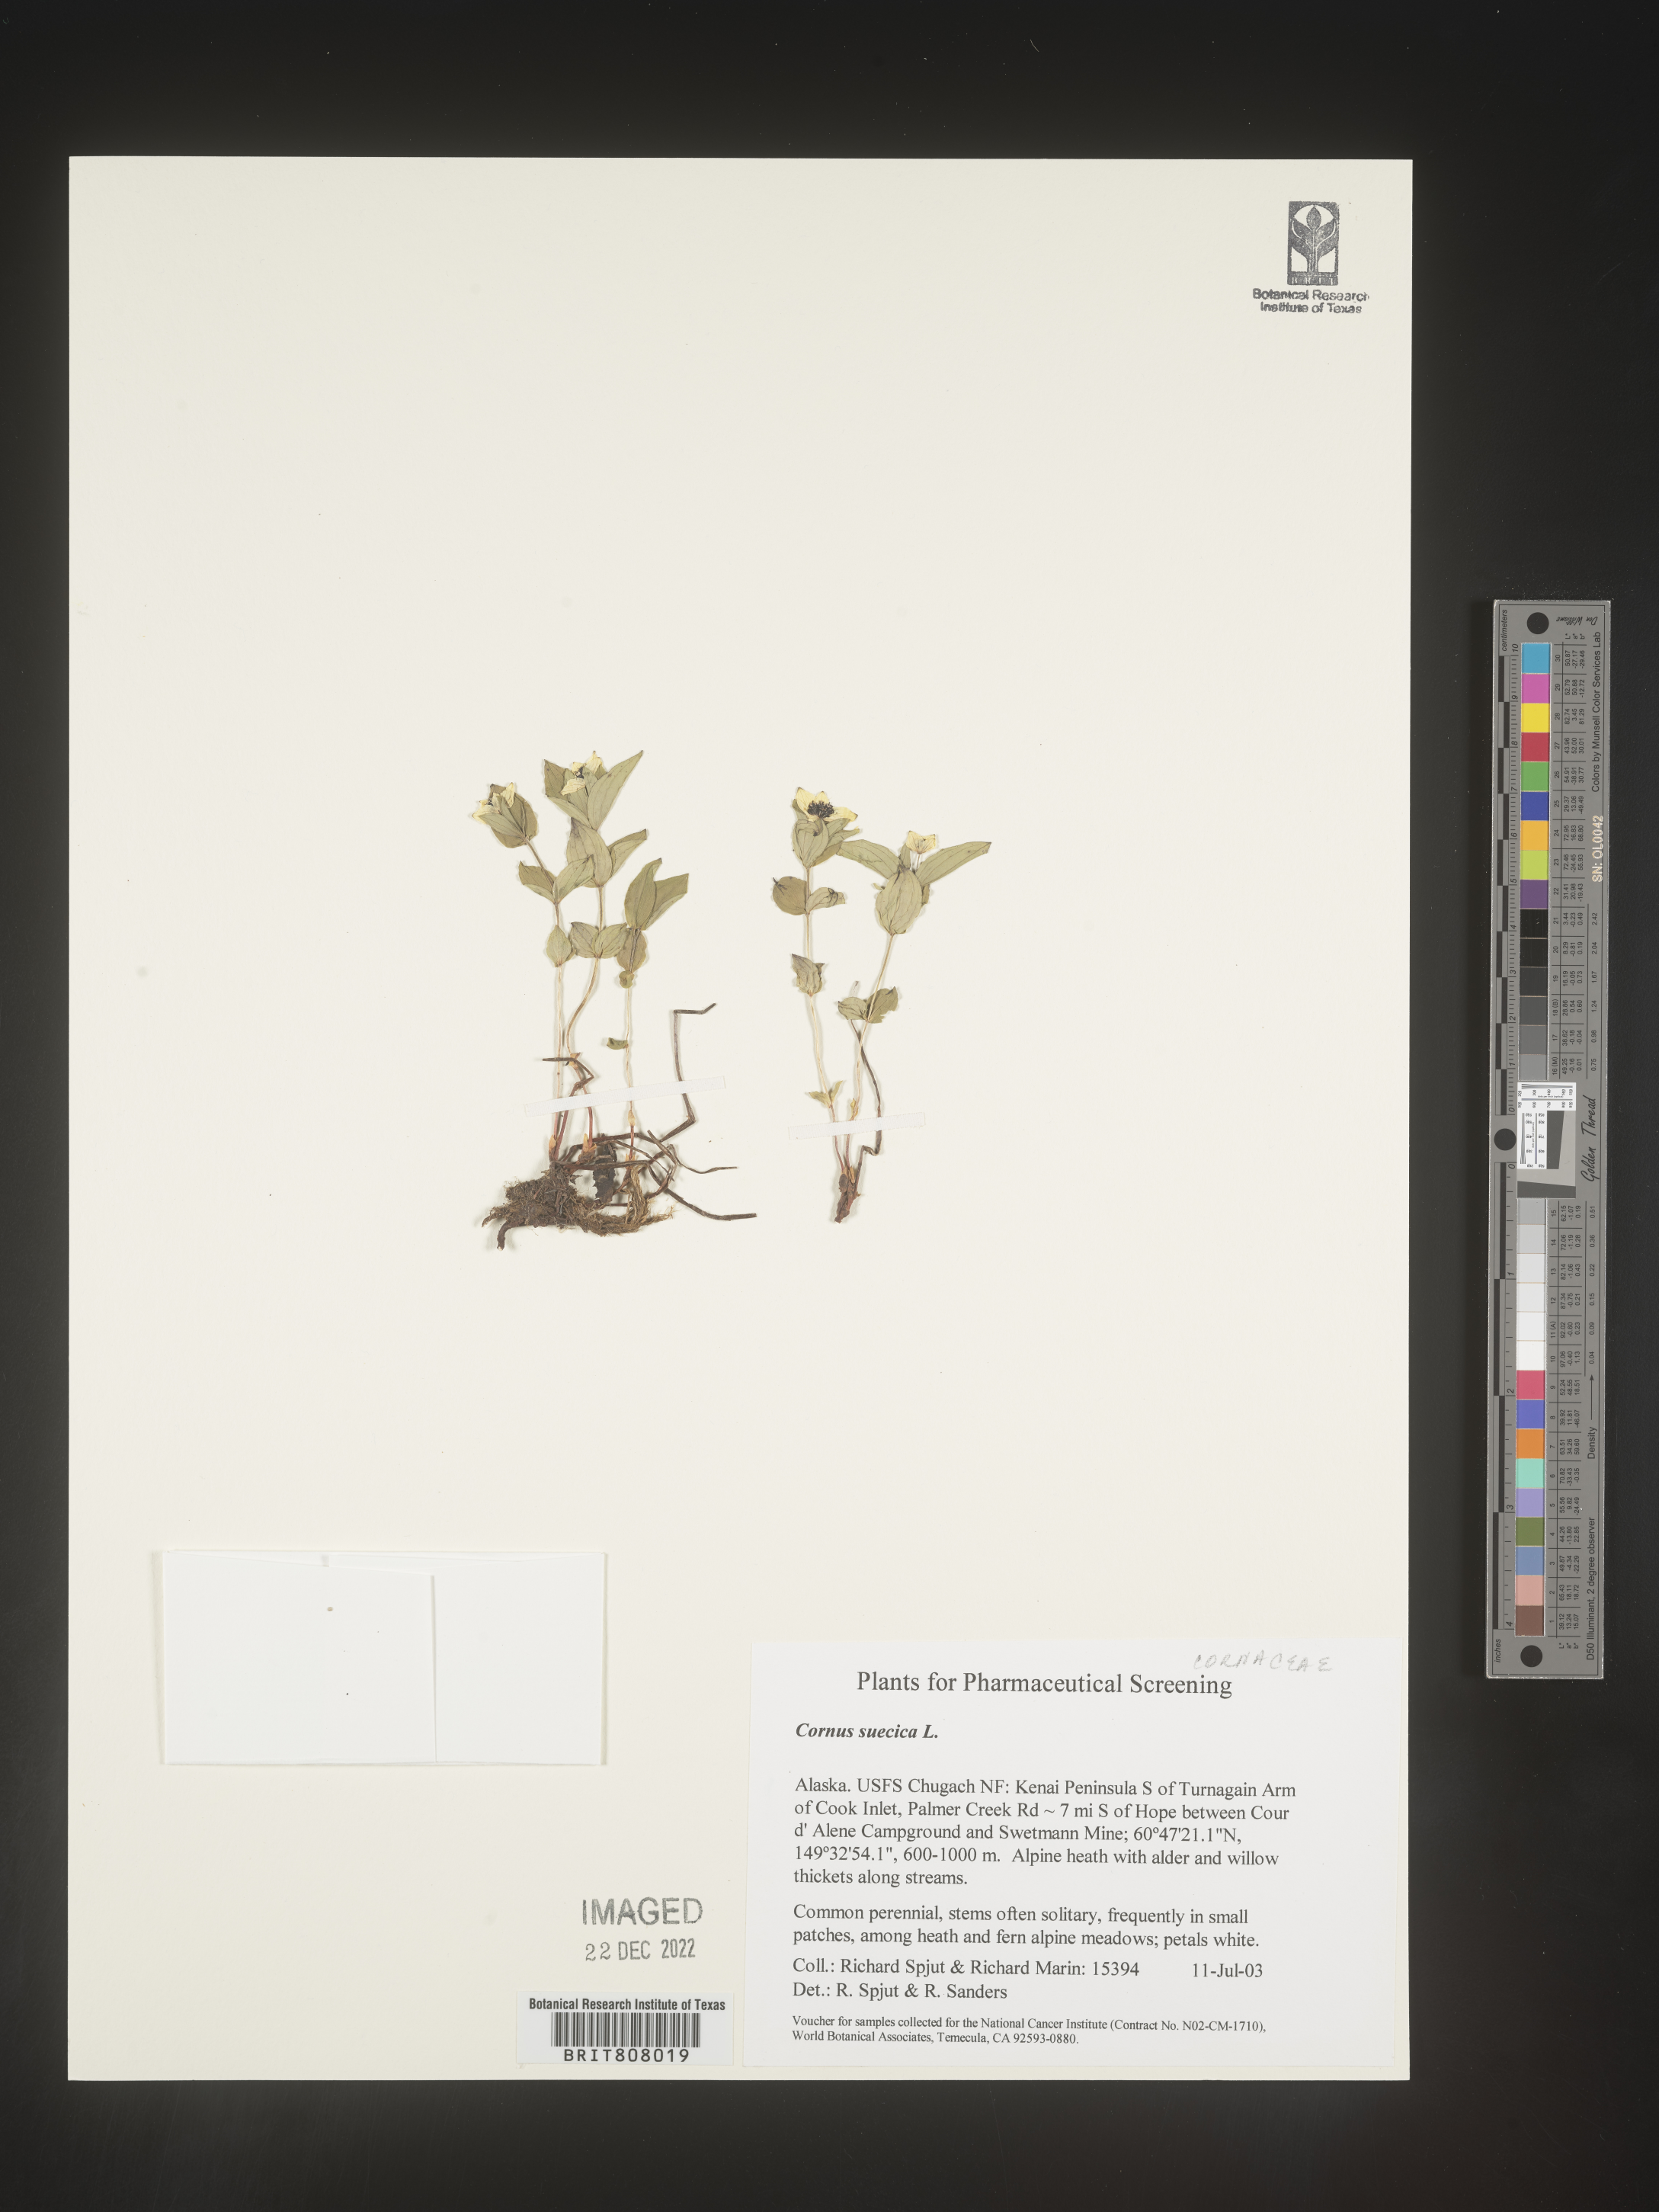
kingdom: Plantae
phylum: Tracheophyta
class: Magnoliopsida
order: Cornales
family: Cornaceae
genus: Cornus
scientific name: Cornus
